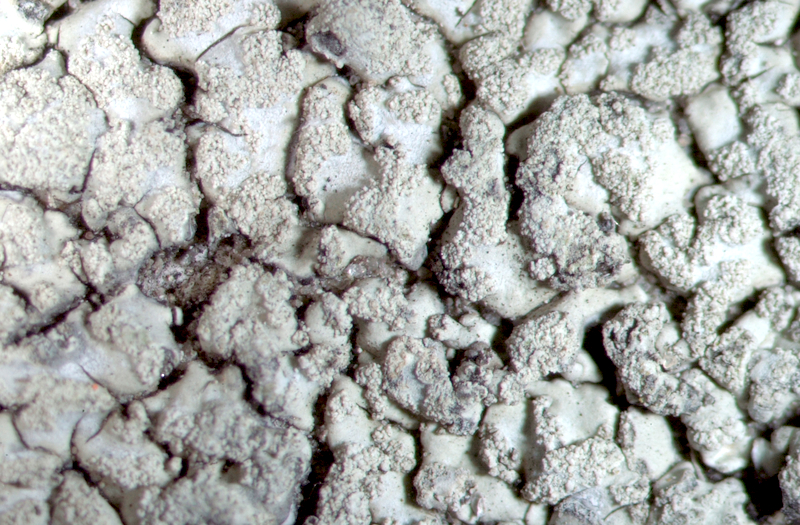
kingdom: Fungi
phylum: Ascomycota
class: Lecanoromycetes
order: Teloschistales
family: Teloschistaceae
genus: Flavoplaca
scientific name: Flavoplaca citrina
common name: Mealy firedot lichen
